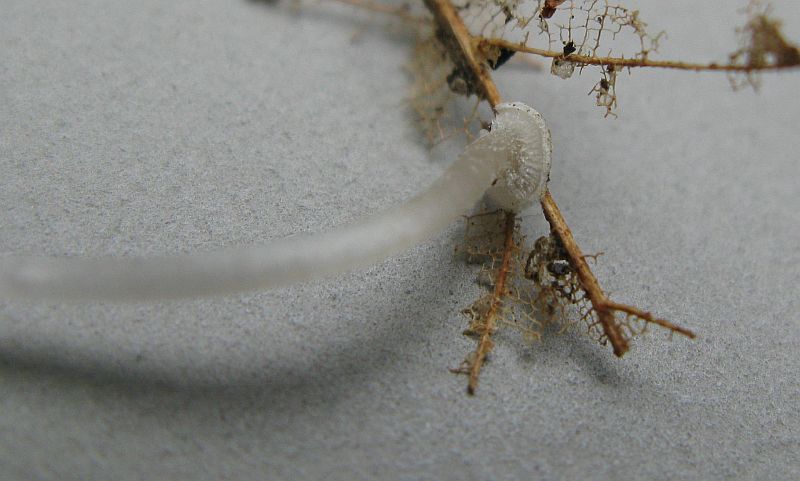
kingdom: Fungi
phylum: Basidiomycota
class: Agaricomycetes
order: Agaricales
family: Mycenaceae
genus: Mycena
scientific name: Mycena stylobates
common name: fureskivet huesvamp
